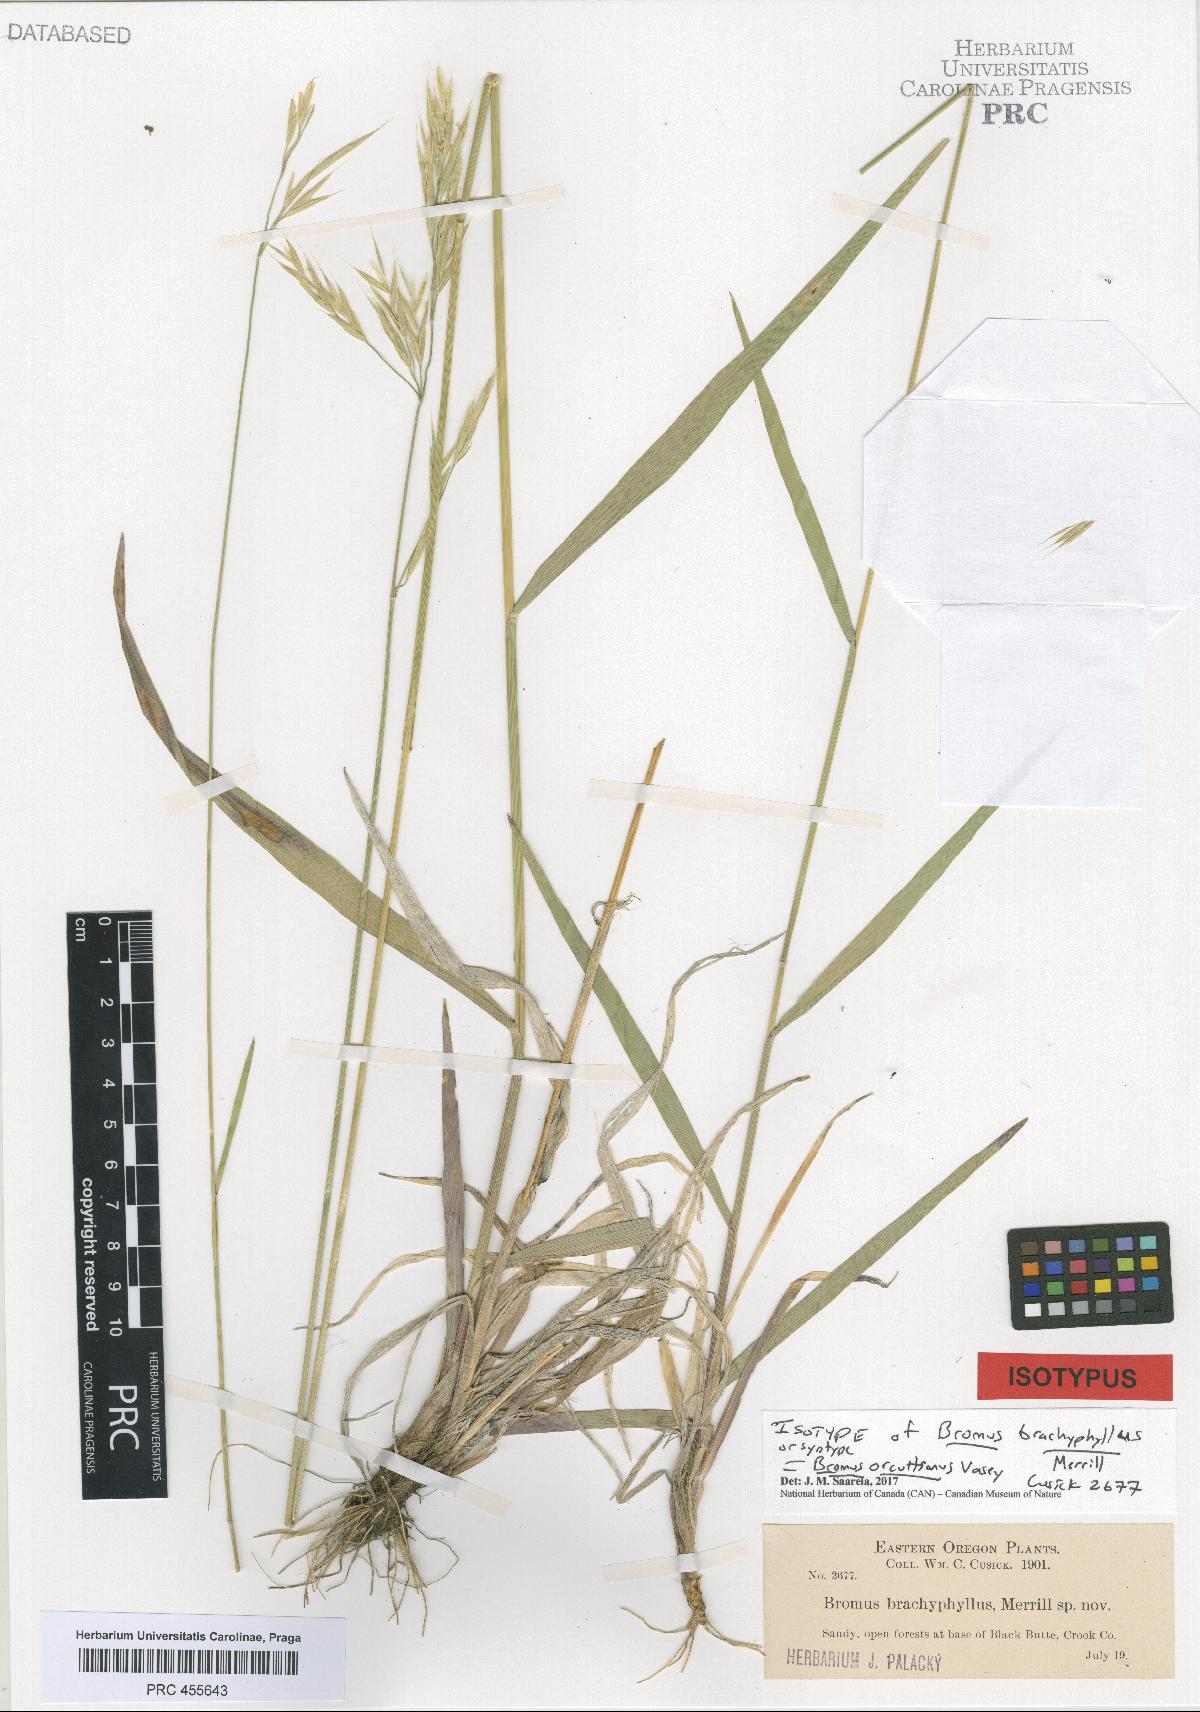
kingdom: Plantae
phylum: Tracheophyta
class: Liliopsida
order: Poales
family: Poaceae
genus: Bromus
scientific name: Bromus orcuttianus
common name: Orcutt's brome
